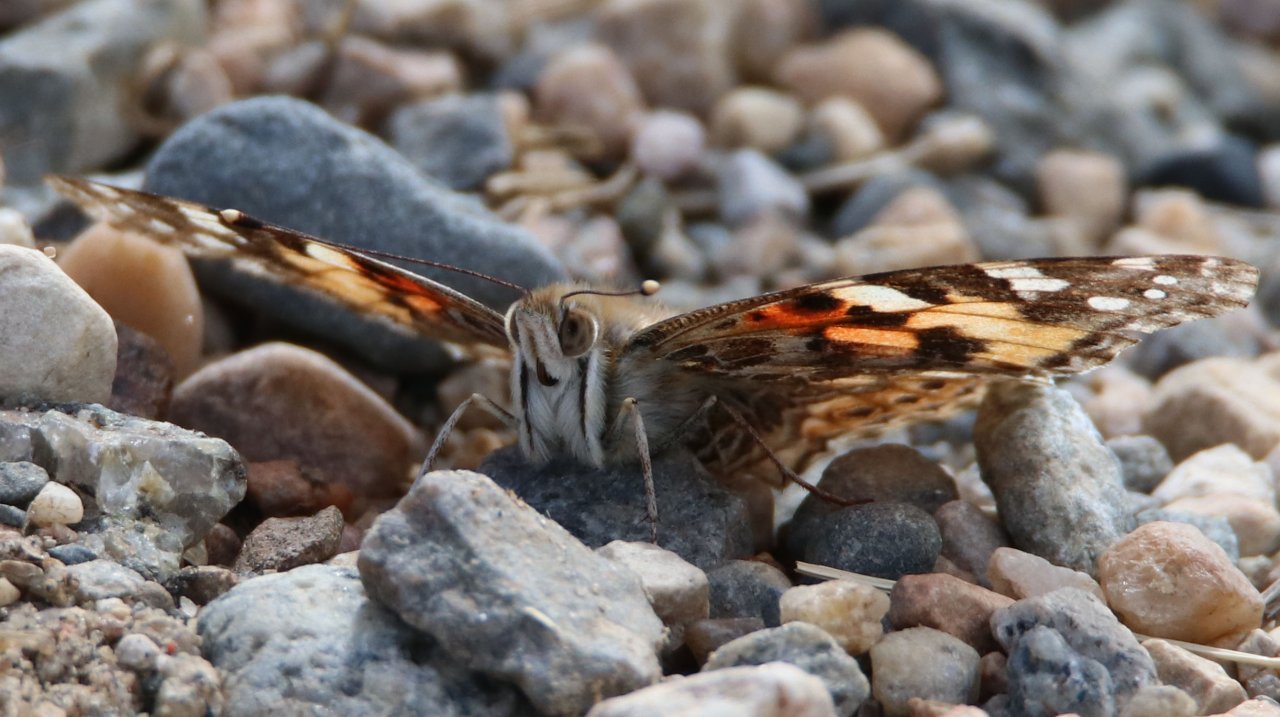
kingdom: Animalia
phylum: Arthropoda
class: Insecta
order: Lepidoptera
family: Nymphalidae
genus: Vanessa
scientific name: Vanessa cardui
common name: Painted Lady
